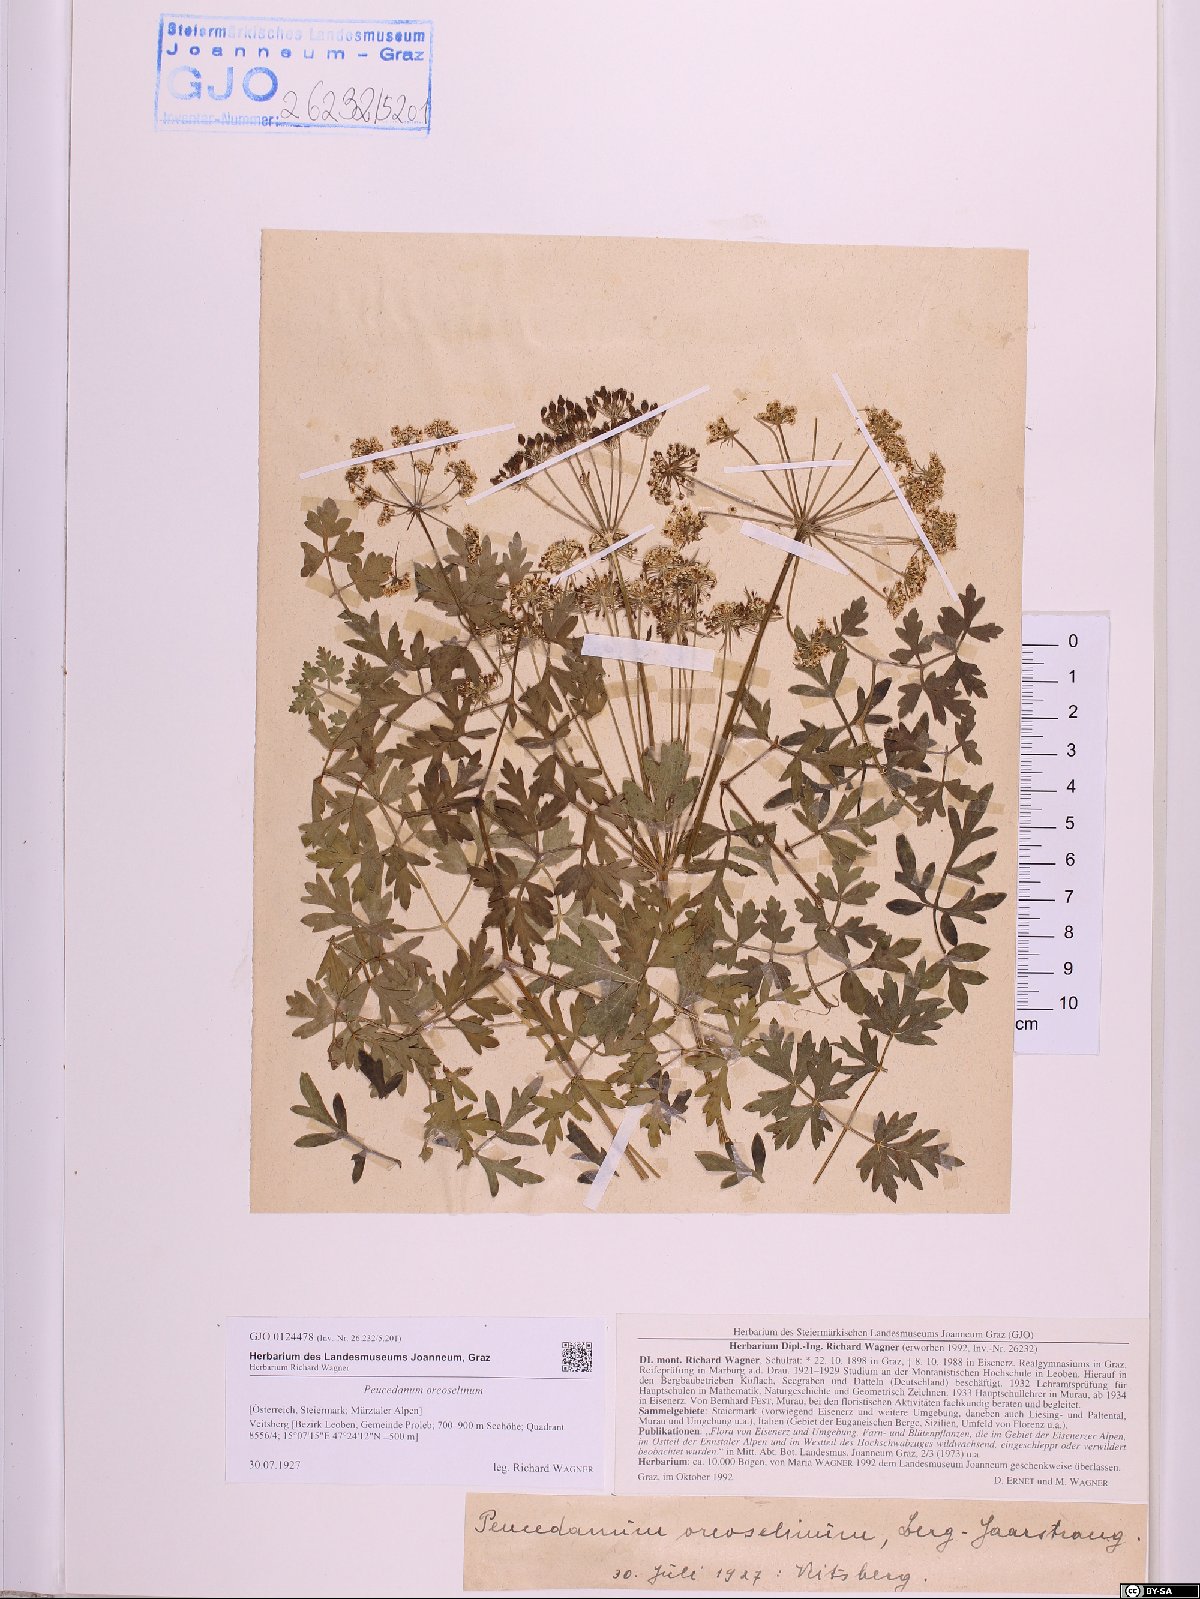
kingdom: Plantae
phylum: Tracheophyta
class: Magnoliopsida
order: Apiales
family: Apiaceae
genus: Oreoselinum
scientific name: Oreoselinum nigrum
